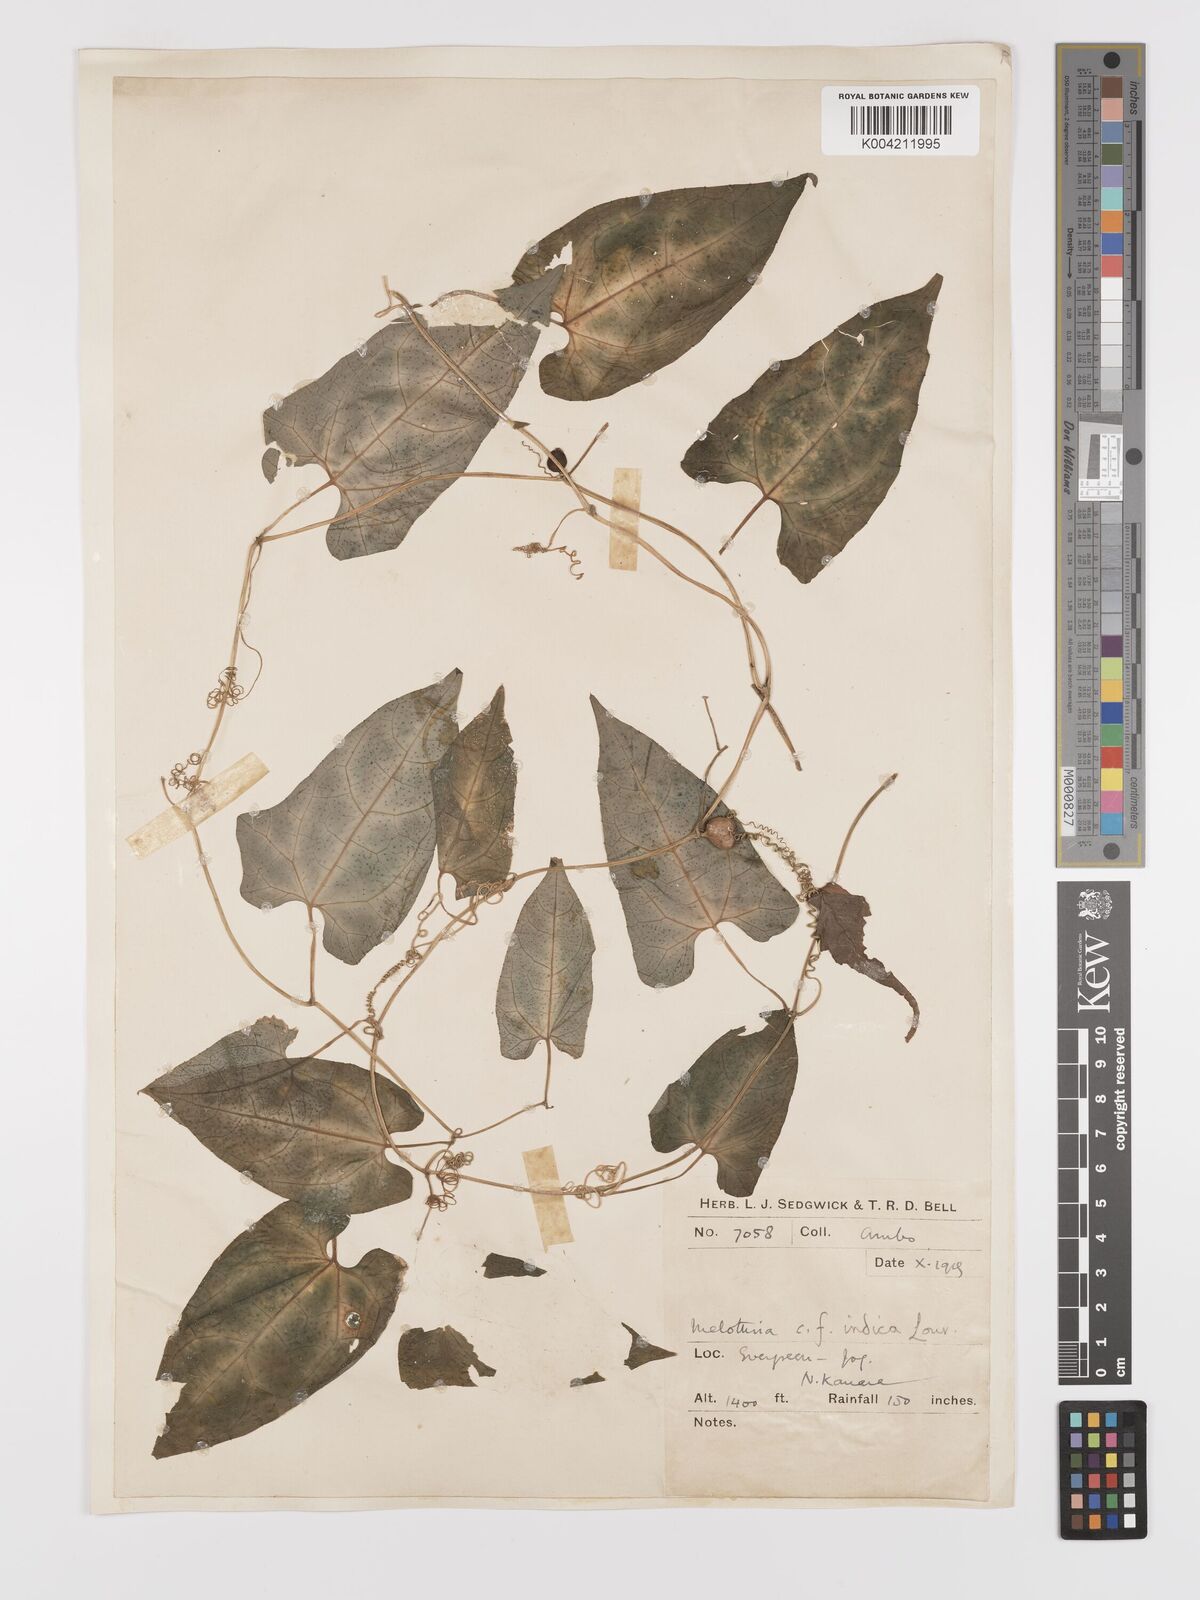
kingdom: Plantae
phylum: Tracheophyta
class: Magnoliopsida
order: Cucurbitales
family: Cucurbitaceae
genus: Kedrostis
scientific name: Kedrostis courtallensis
